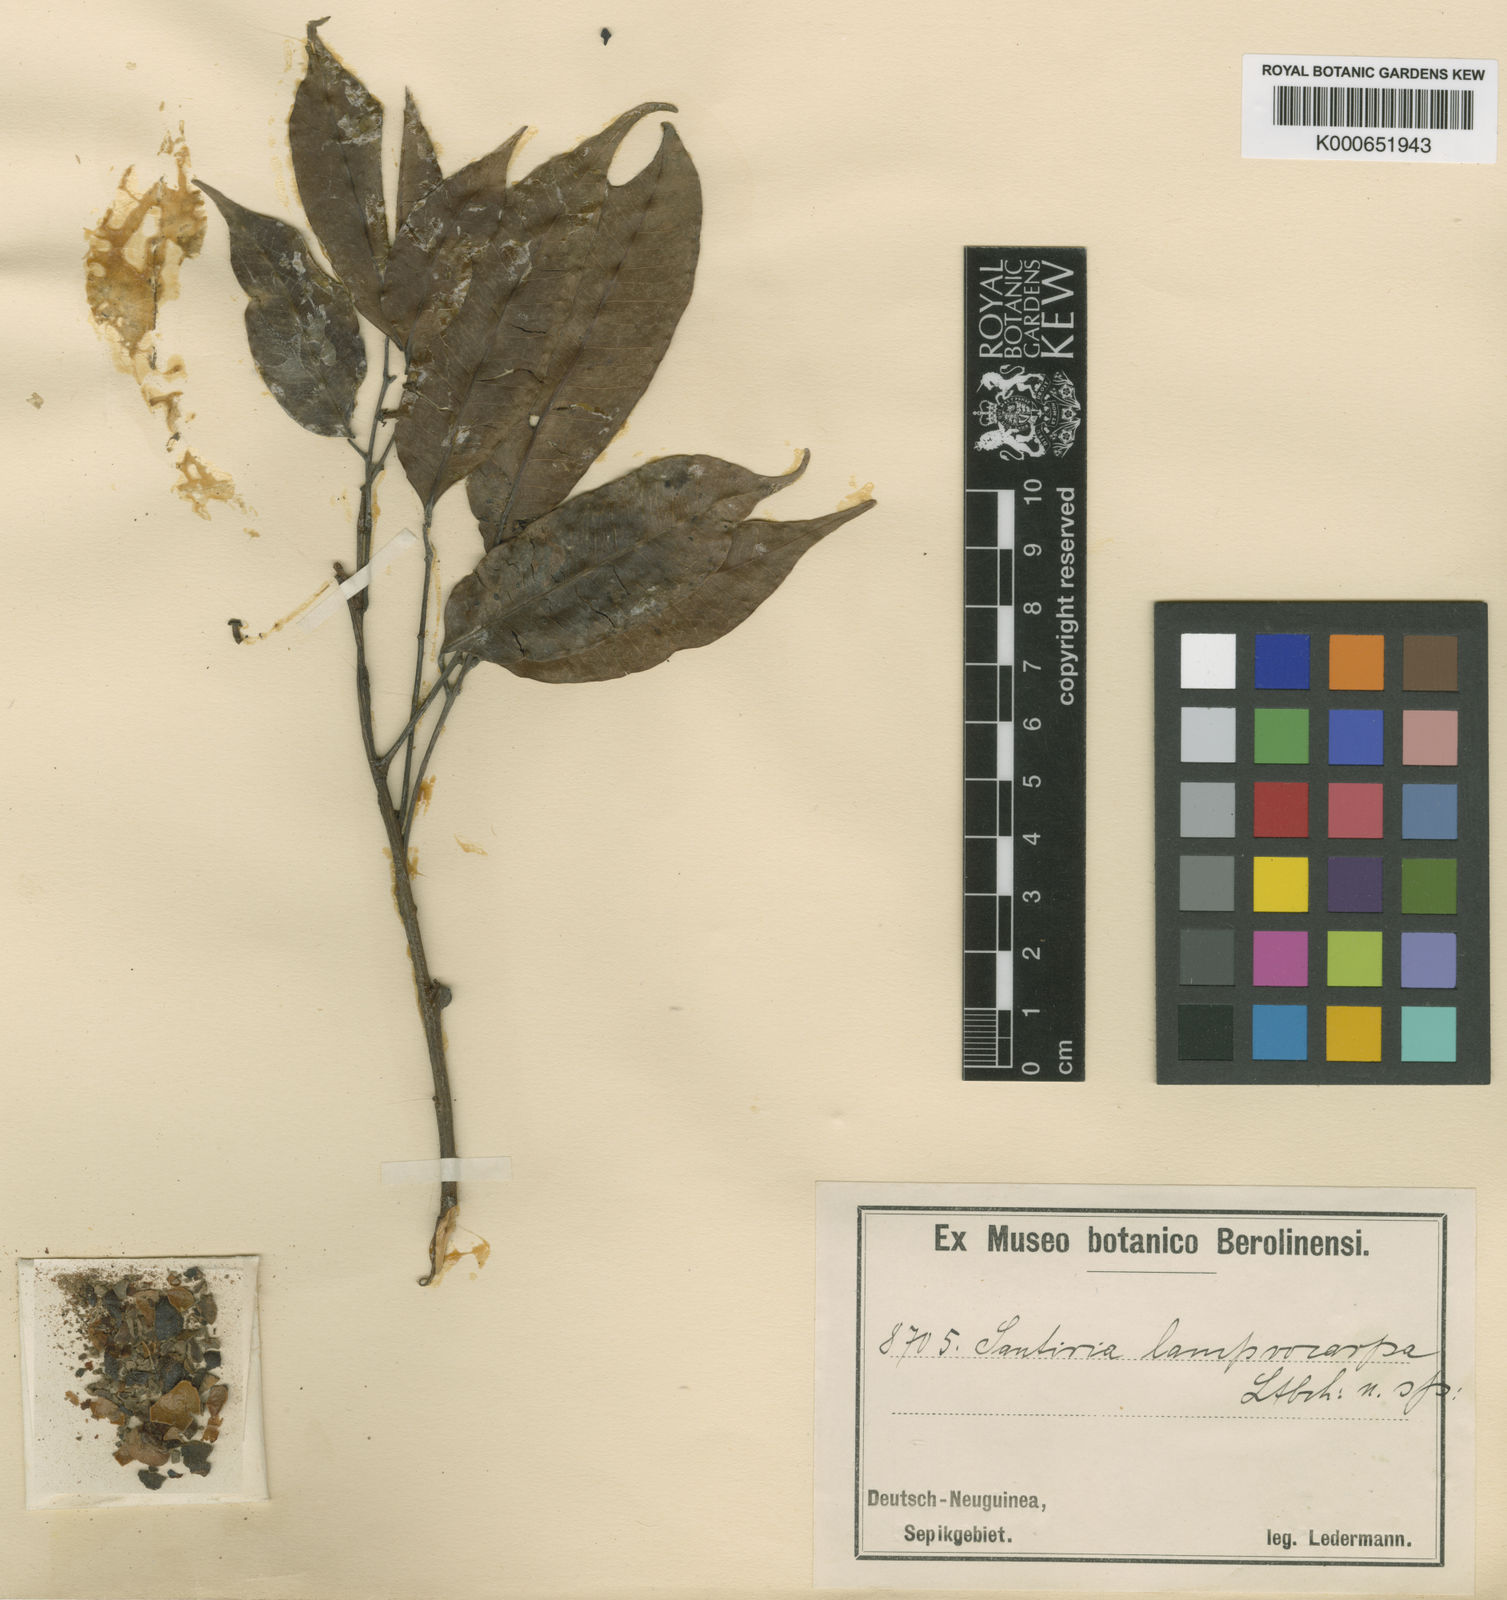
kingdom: Plantae
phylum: Tracheophyta
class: Magnoliopsida
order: Sapindales
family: Burseraceae
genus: Santiria
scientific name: Santiria rubiginosa
